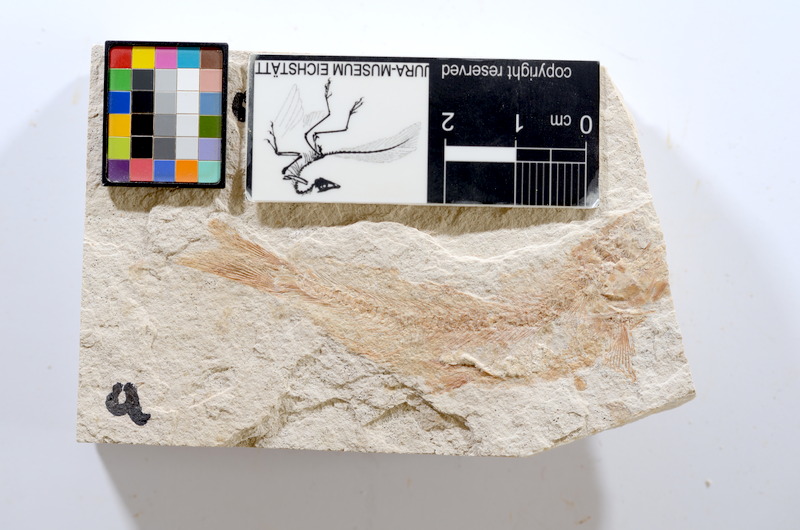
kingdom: Animalia
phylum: Chordata
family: Ascalaboidae
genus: Tharsis
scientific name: Tharsis dubius
